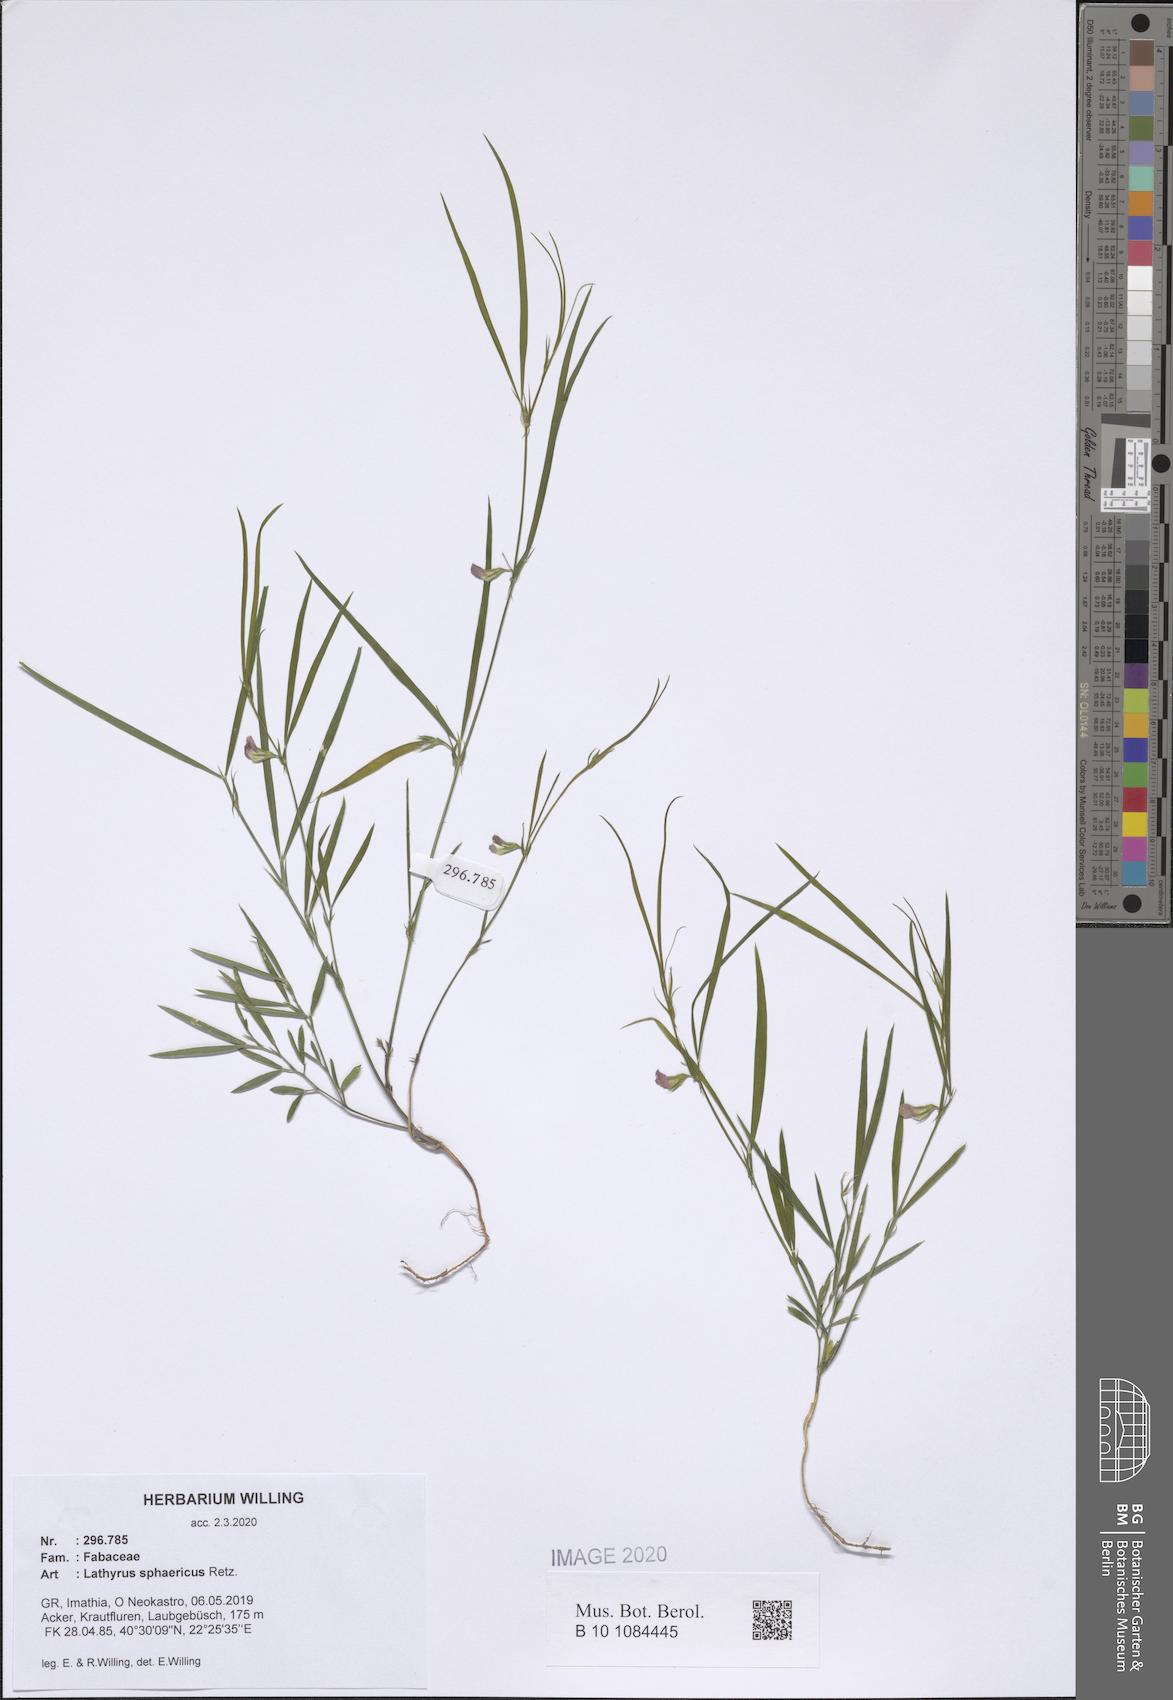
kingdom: Plantae
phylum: Tracheophyta
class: Magnoliopsida
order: Fabales
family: Fabaceae
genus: Lathyrus
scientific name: Lathyrus sphaericus
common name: Grass pea
